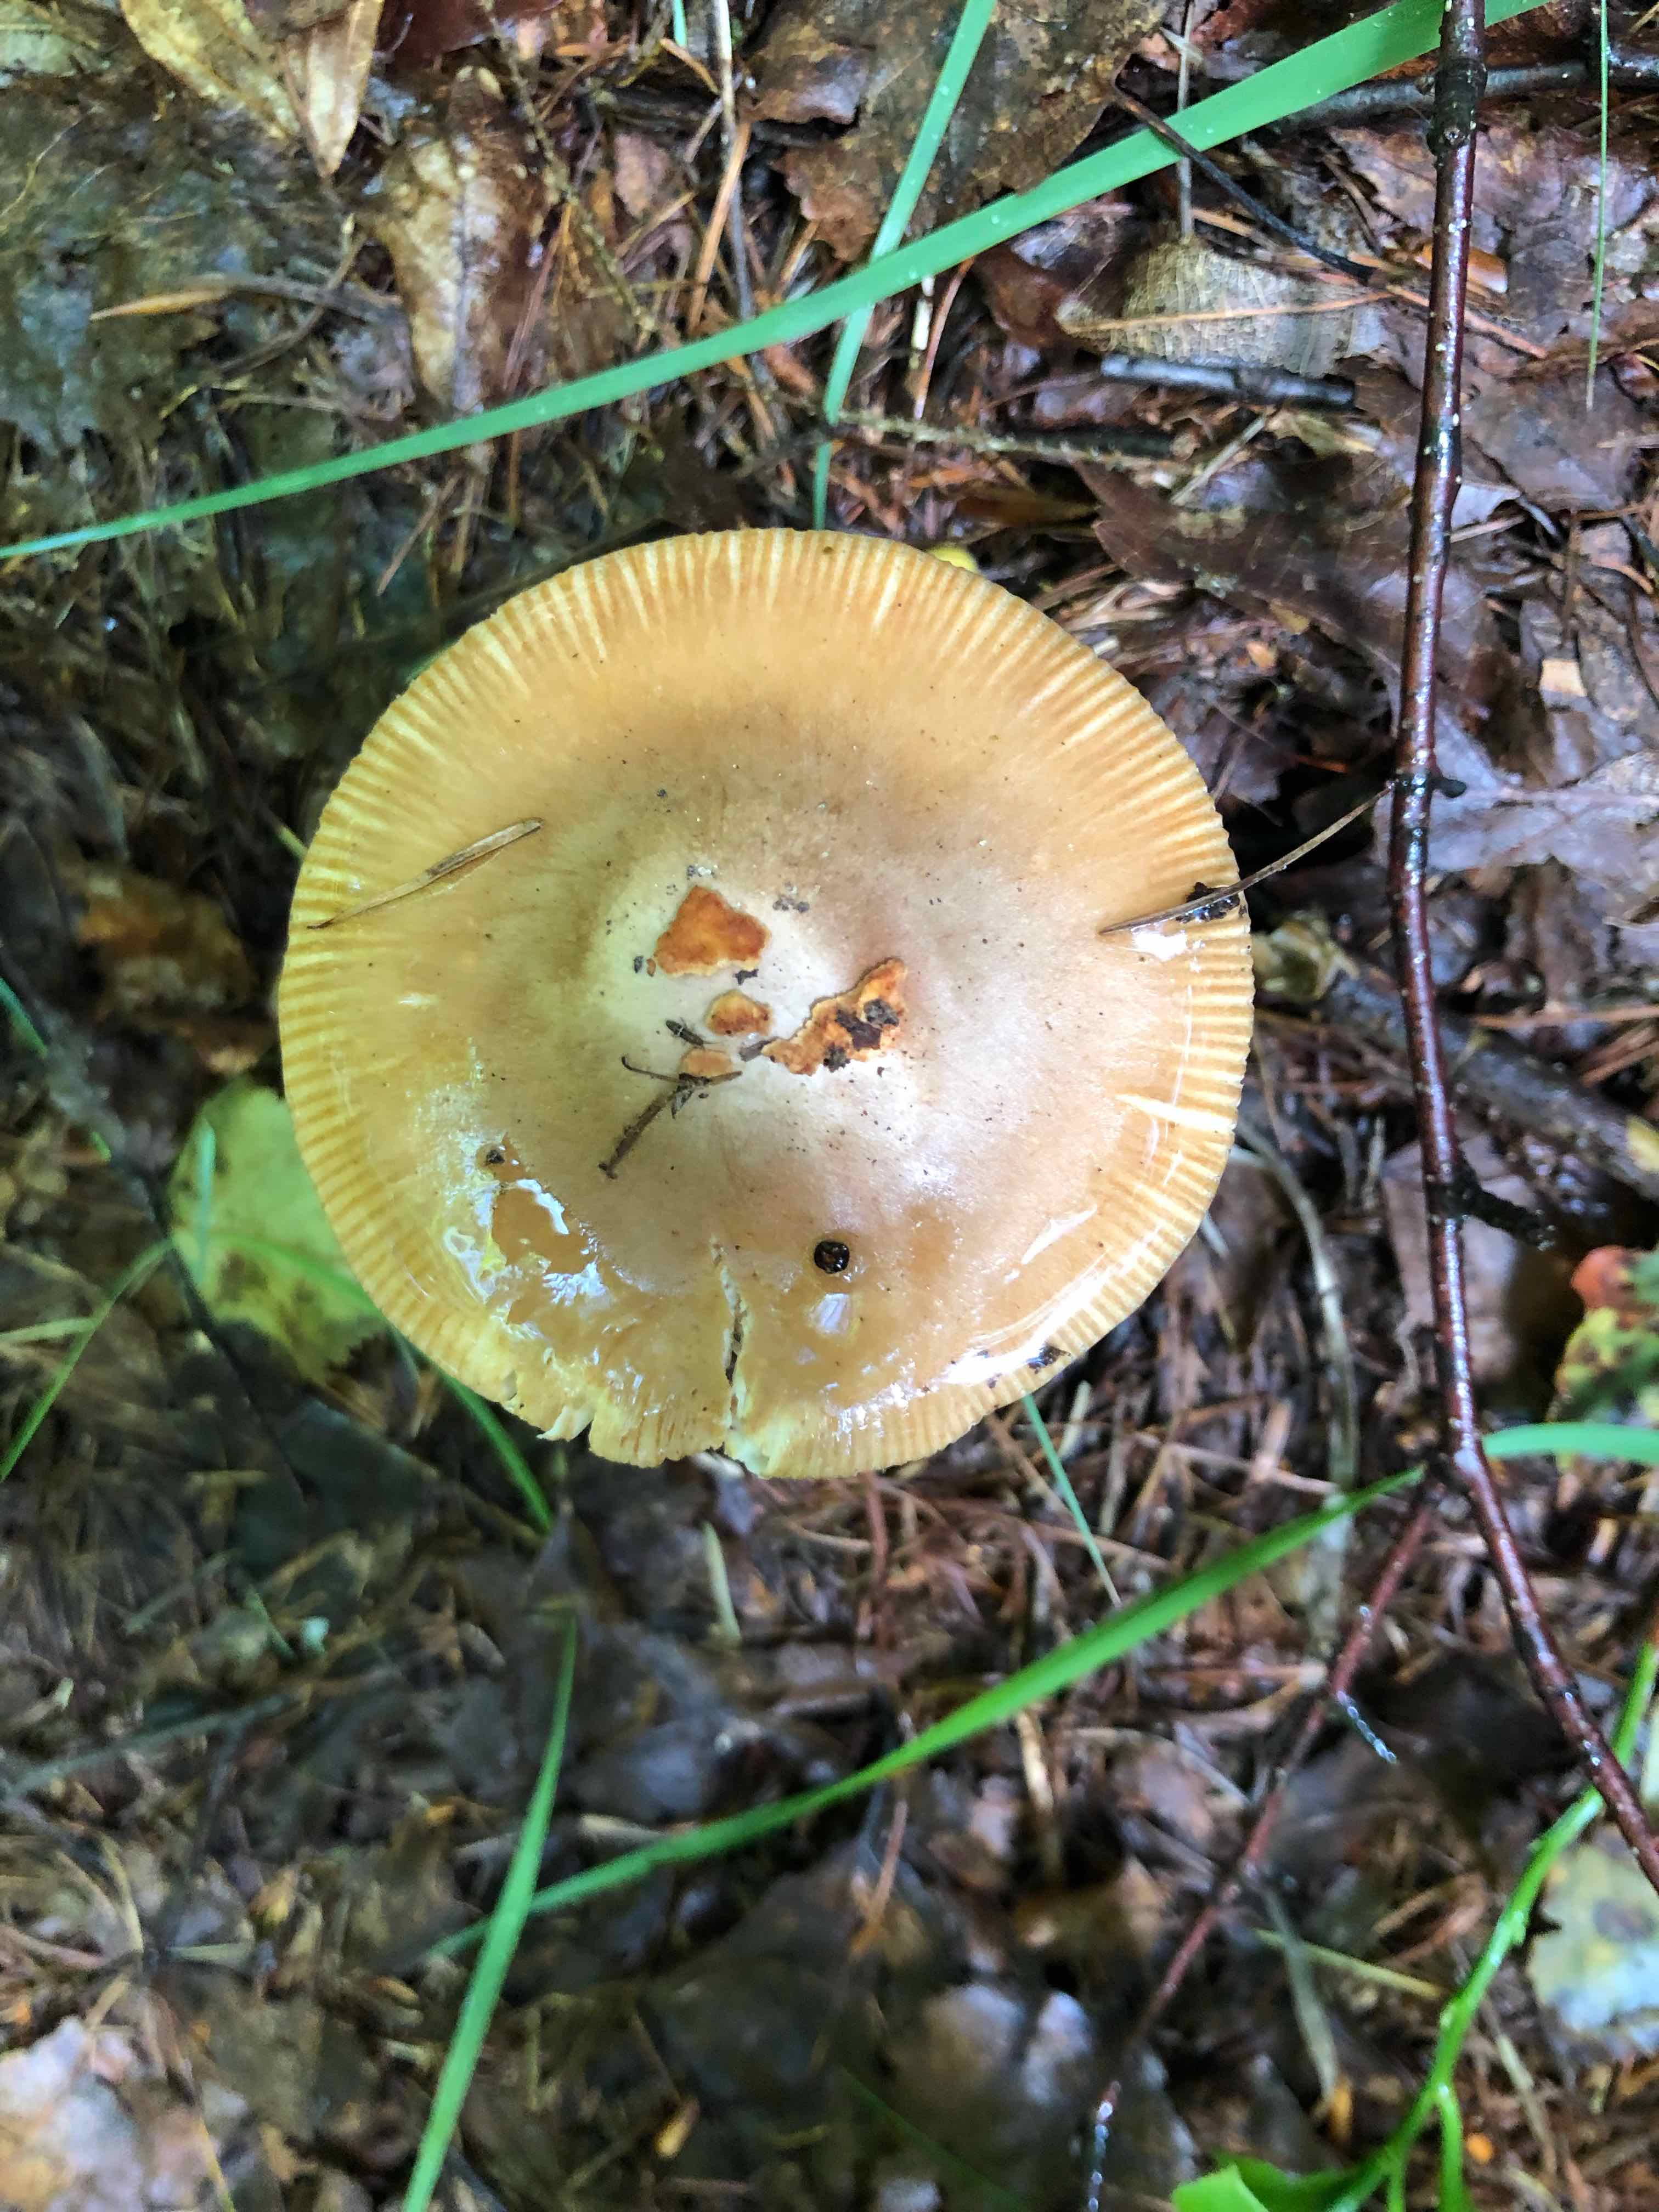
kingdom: Fungi
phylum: Basidiomycota
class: Agaricomycetes
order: Agaricales
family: Amanitaceae
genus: Amanita
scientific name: Amanita fulva
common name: brun kam-fluesvamp
